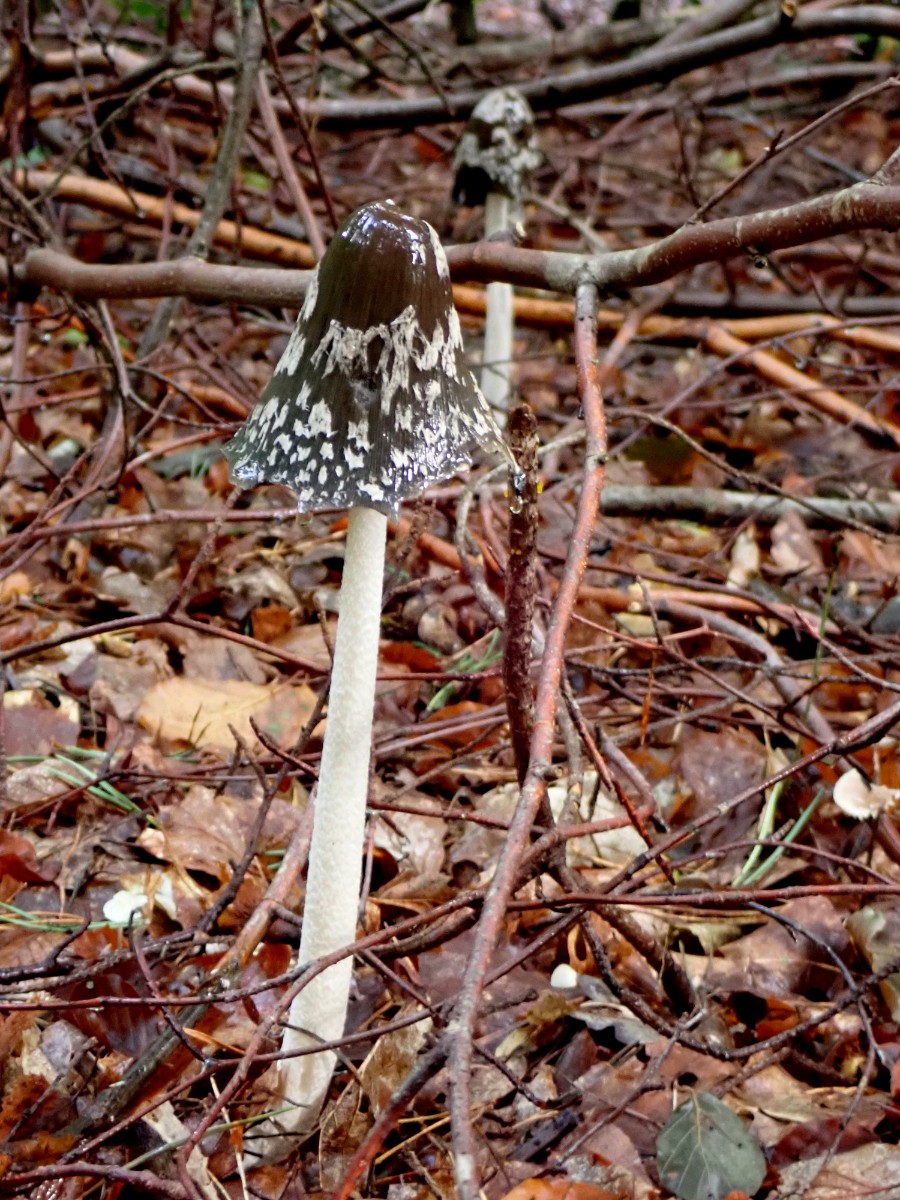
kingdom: Fungi
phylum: Basidiomycota
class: Agaricomycetes
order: Agaricales
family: Psathyrellaceae
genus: Coprinopsis
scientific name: Coprinopsis picacea
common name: skade-blækhat
